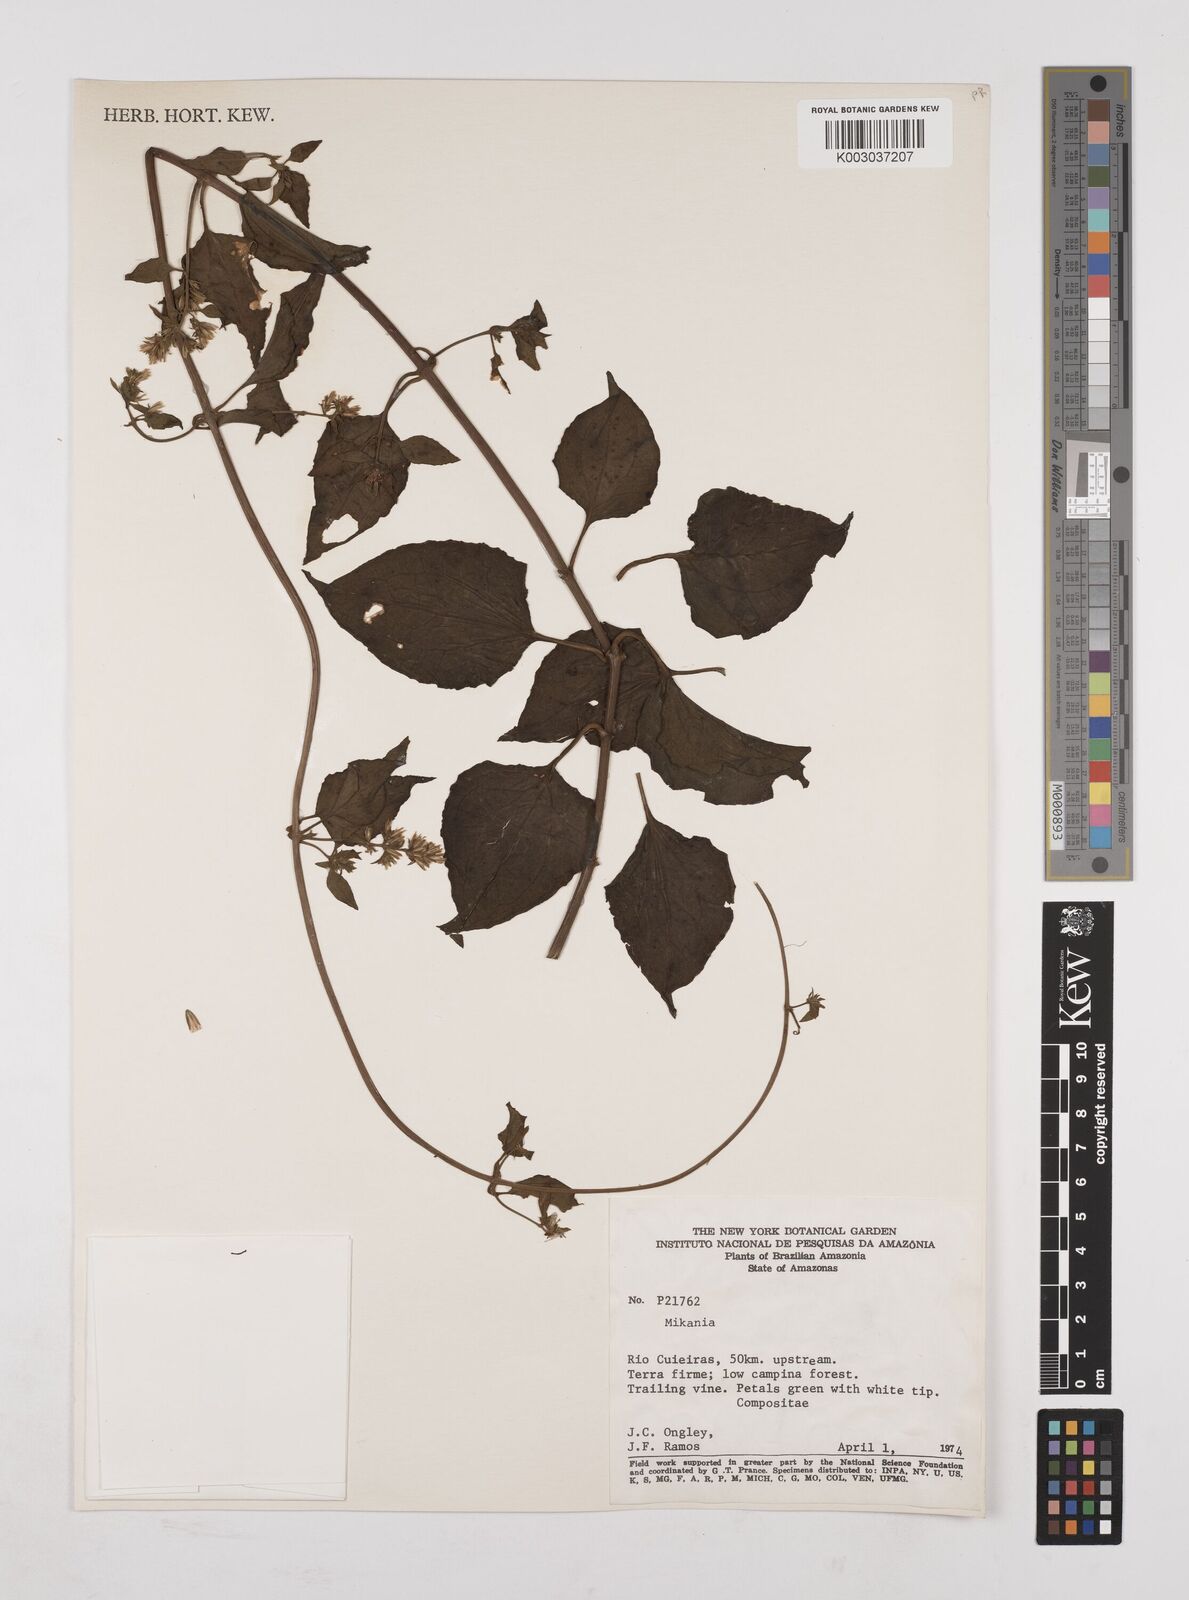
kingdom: Plantae
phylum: Tracheophyta
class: Magnoliopsida
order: Asterales
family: Asteraceae
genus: Mikania
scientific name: Mikania
